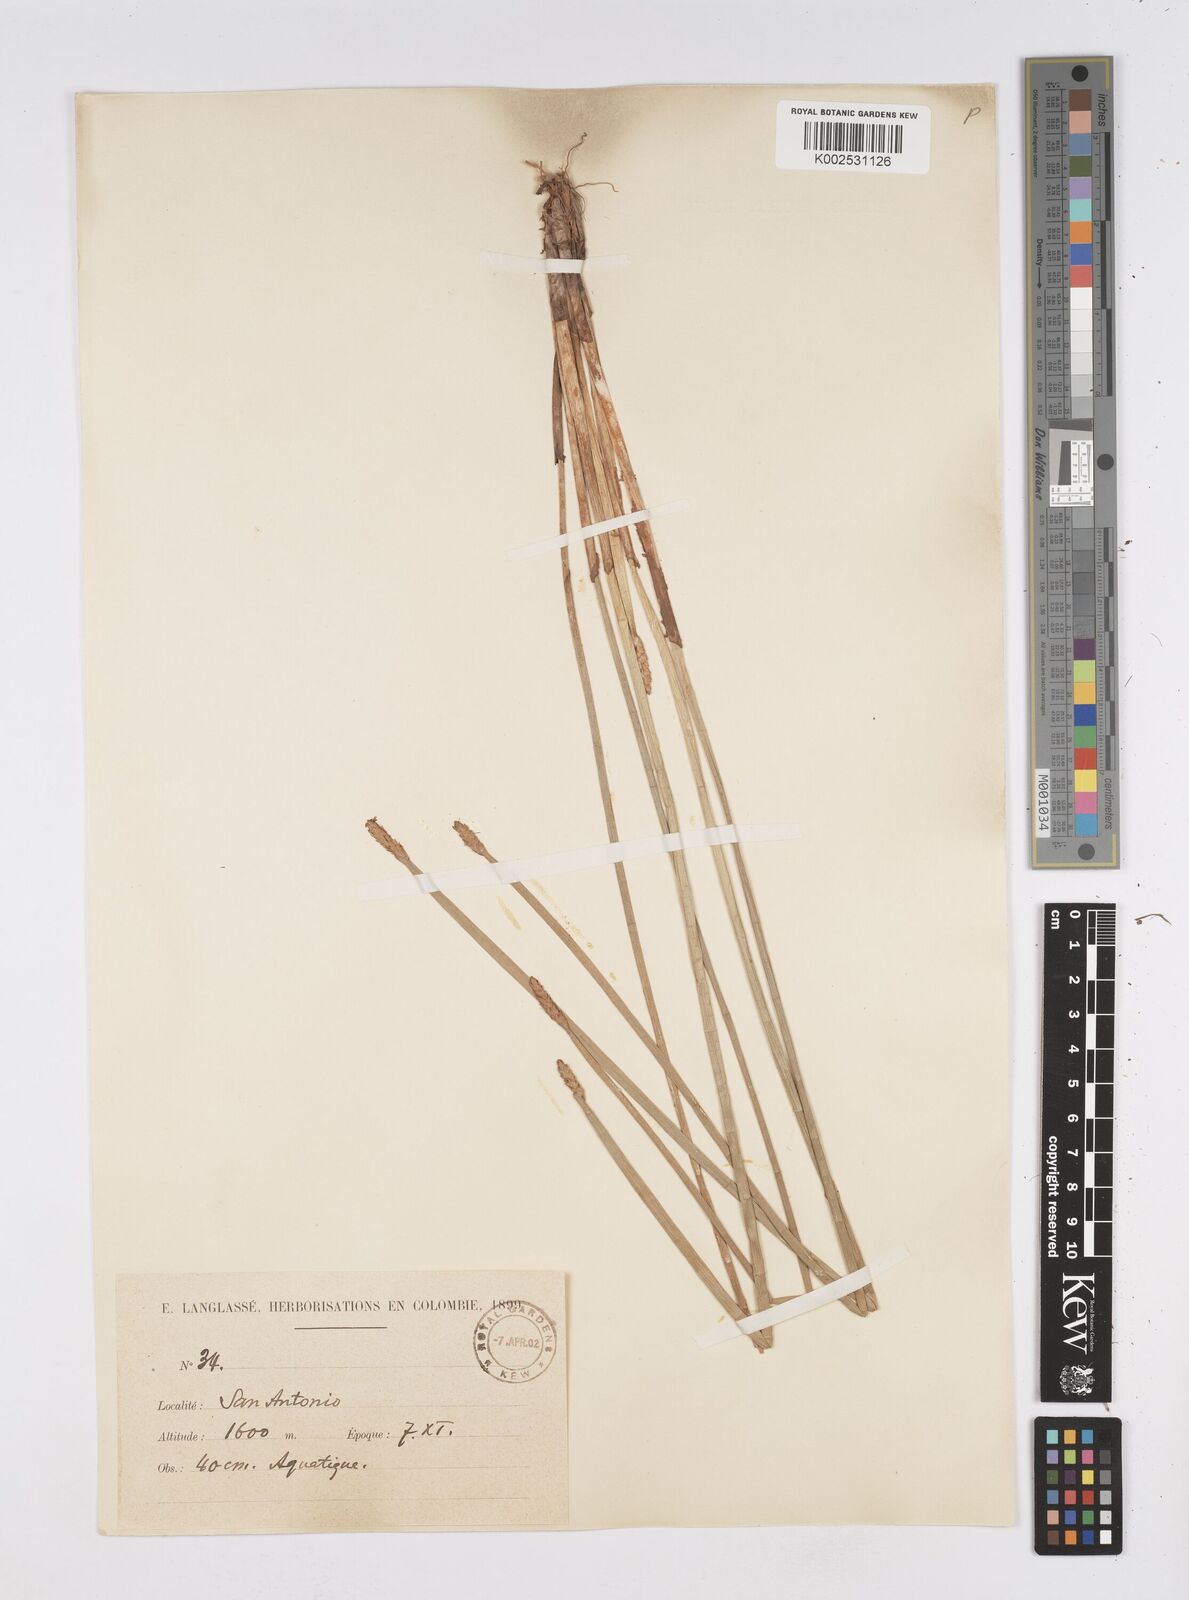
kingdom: Plantae
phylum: Tracheophyta
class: Liliopsida
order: Poales
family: Cyperaceae
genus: Eleocharis
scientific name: Eleocharis interstincta
